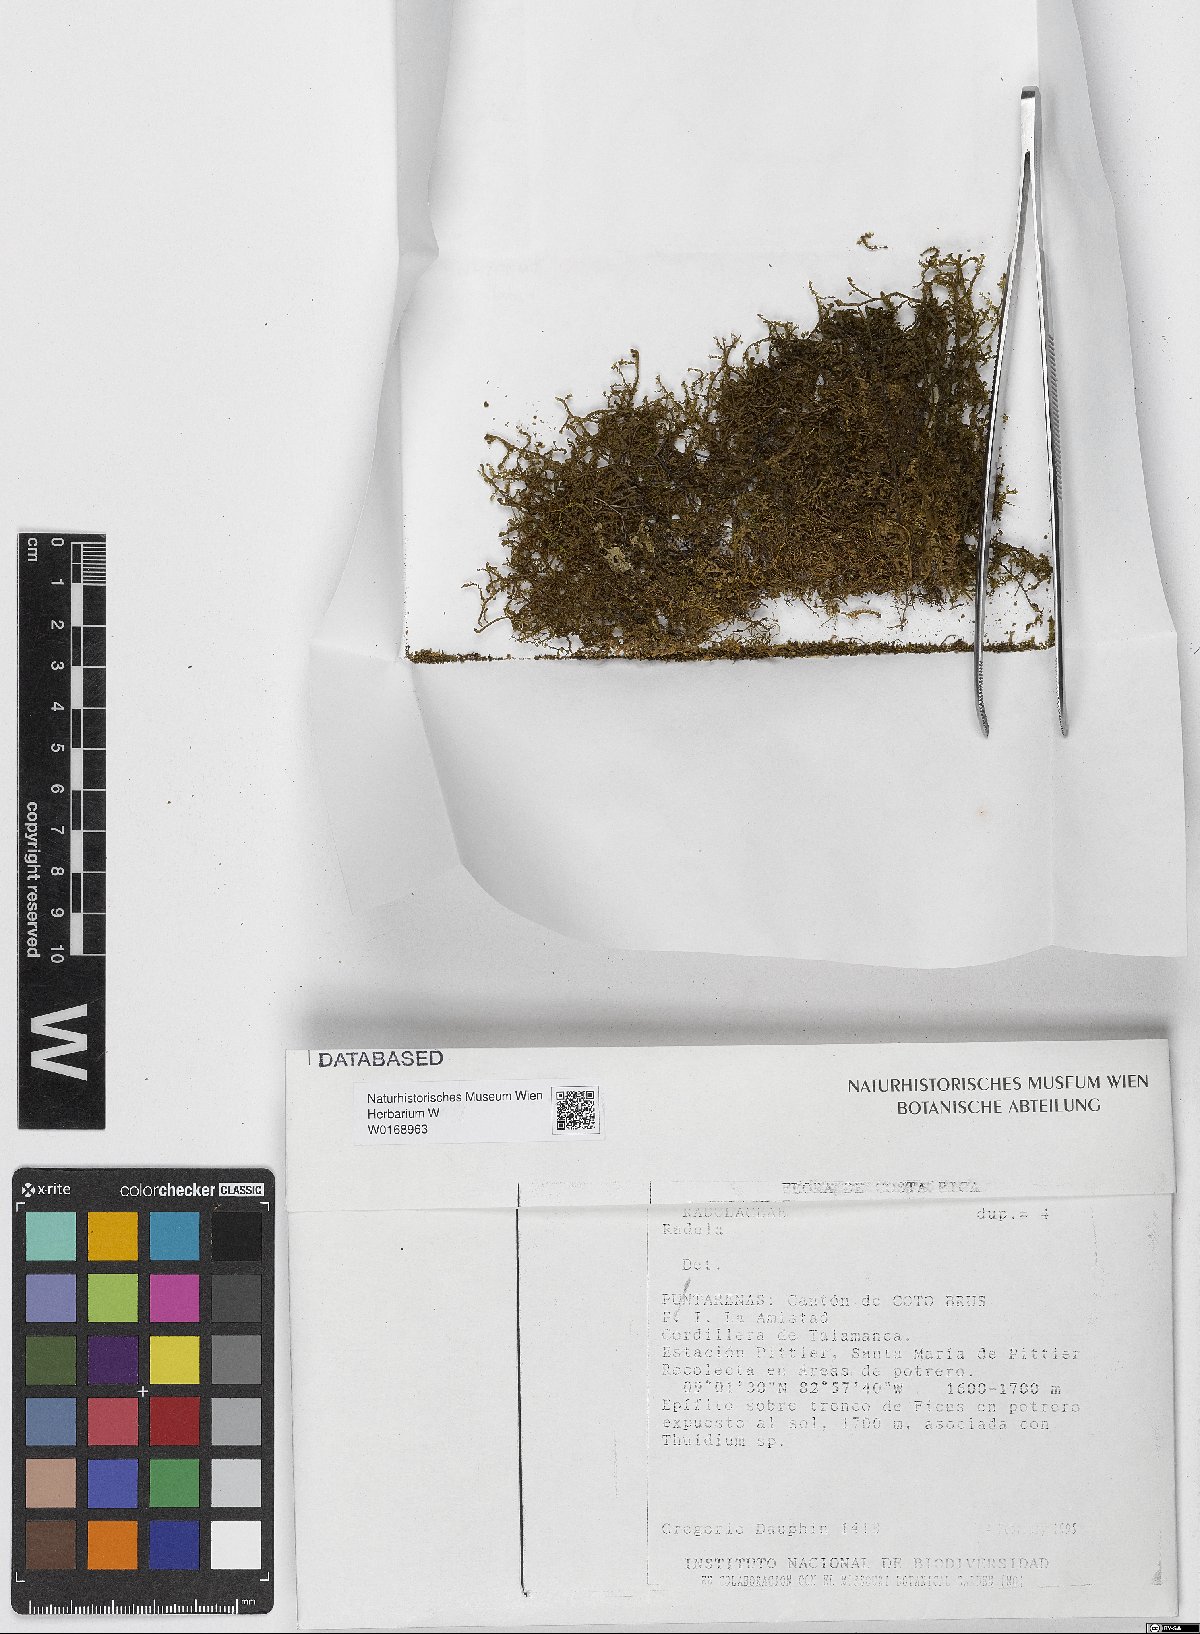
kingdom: Plantae
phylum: Marchantiophyta
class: Jungermanniopsida
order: Porellales
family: Radulaceae
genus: Radula
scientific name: Radula
